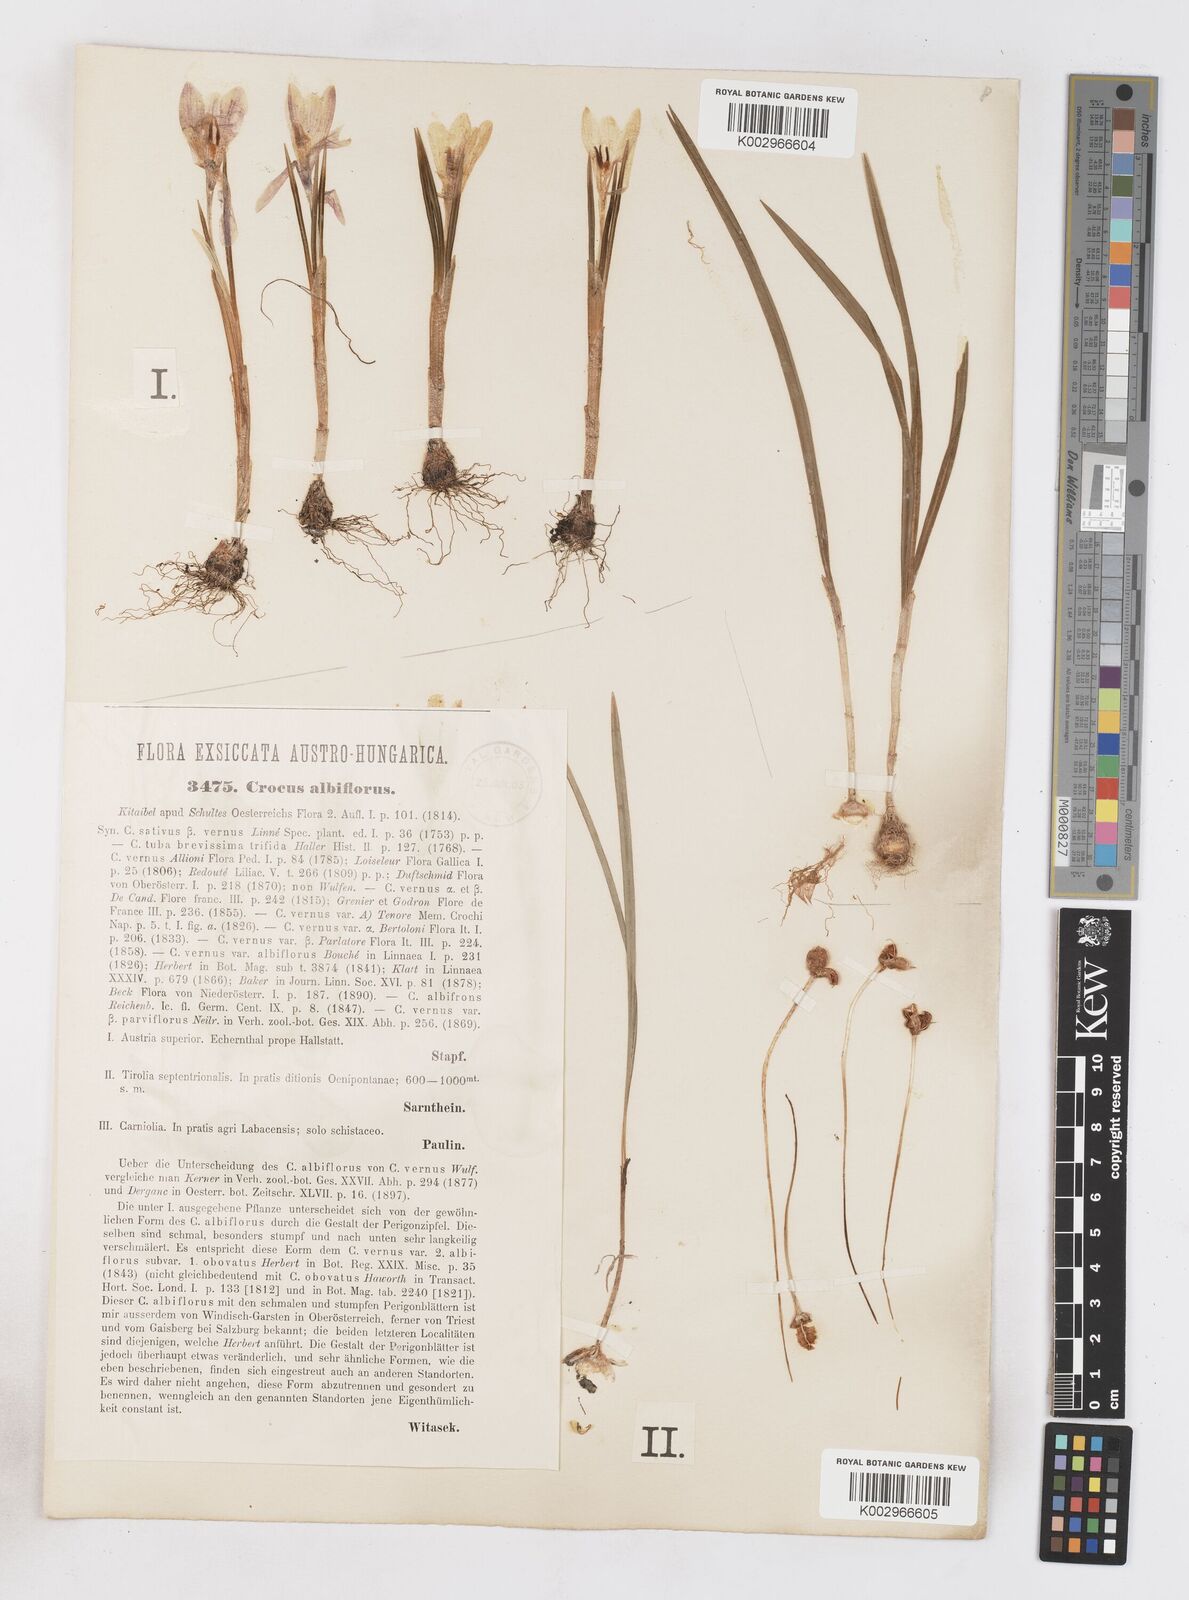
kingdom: Plantae
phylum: Tracheophyta
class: Liliopsida
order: Asparagales
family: Iridaceae
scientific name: Iridaceae
